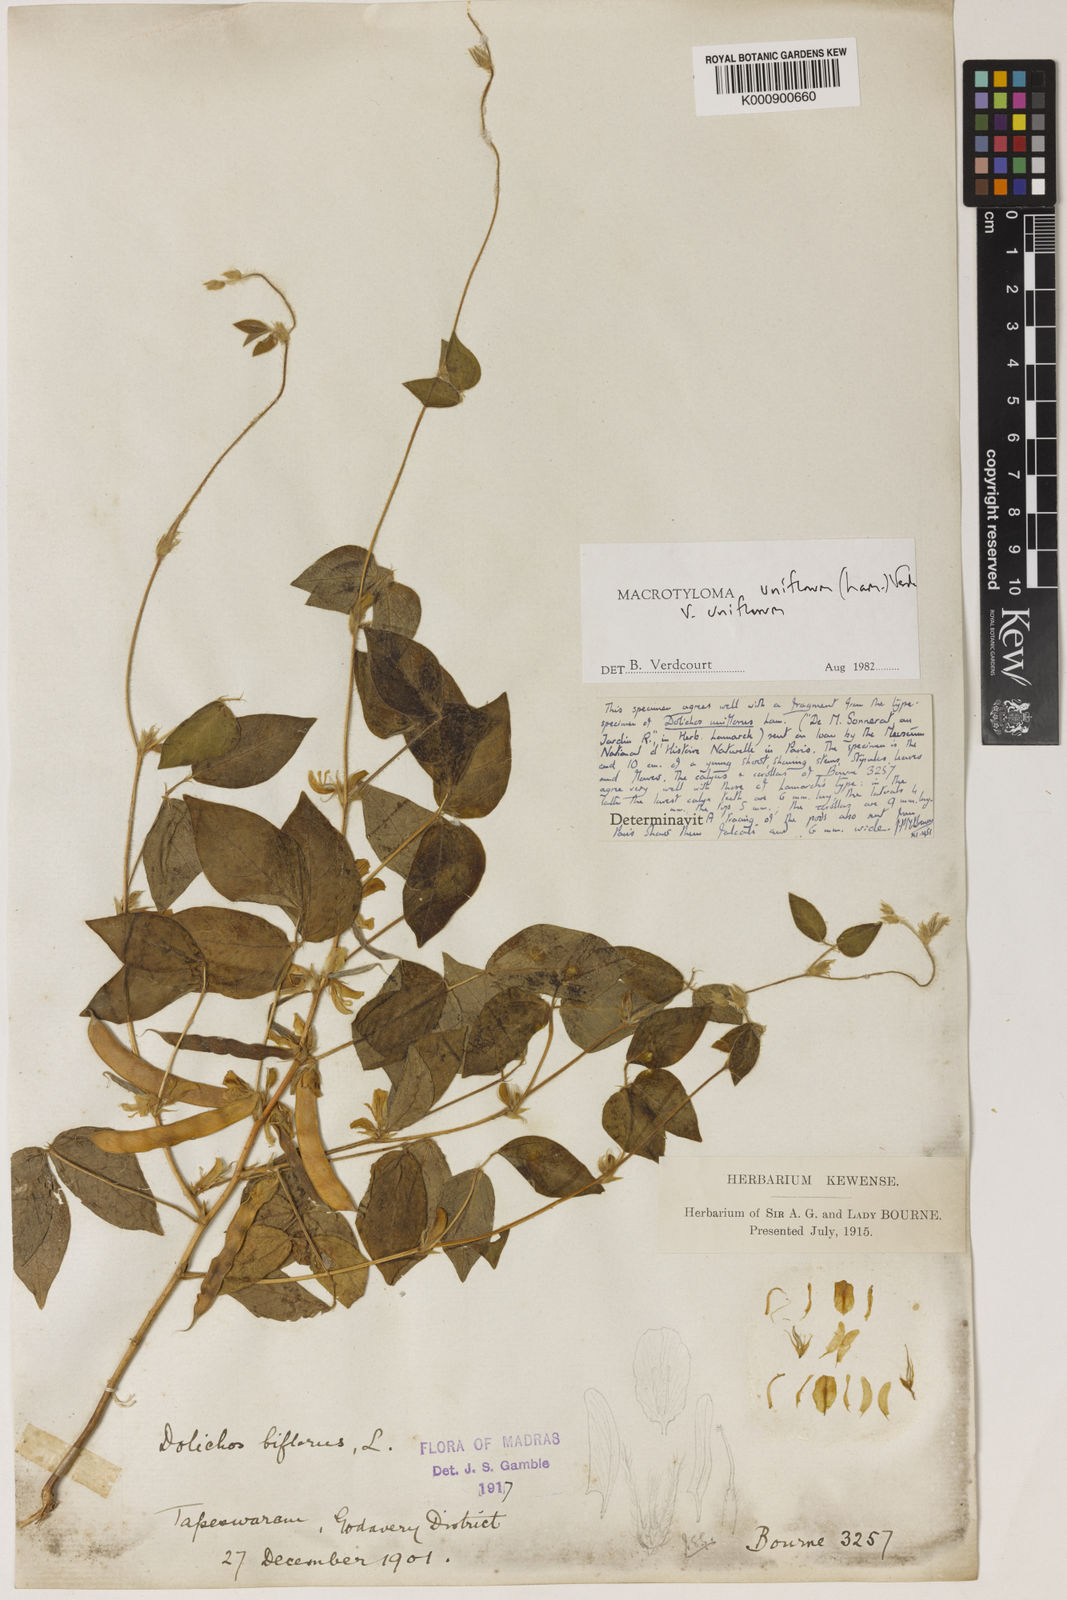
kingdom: Plantae
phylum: Tracheophyta
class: Magnoliopsida
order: Fabales
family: Fabaceae
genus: Macrotyloma
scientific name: Macrotyloma uniflorum
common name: Horse gram
